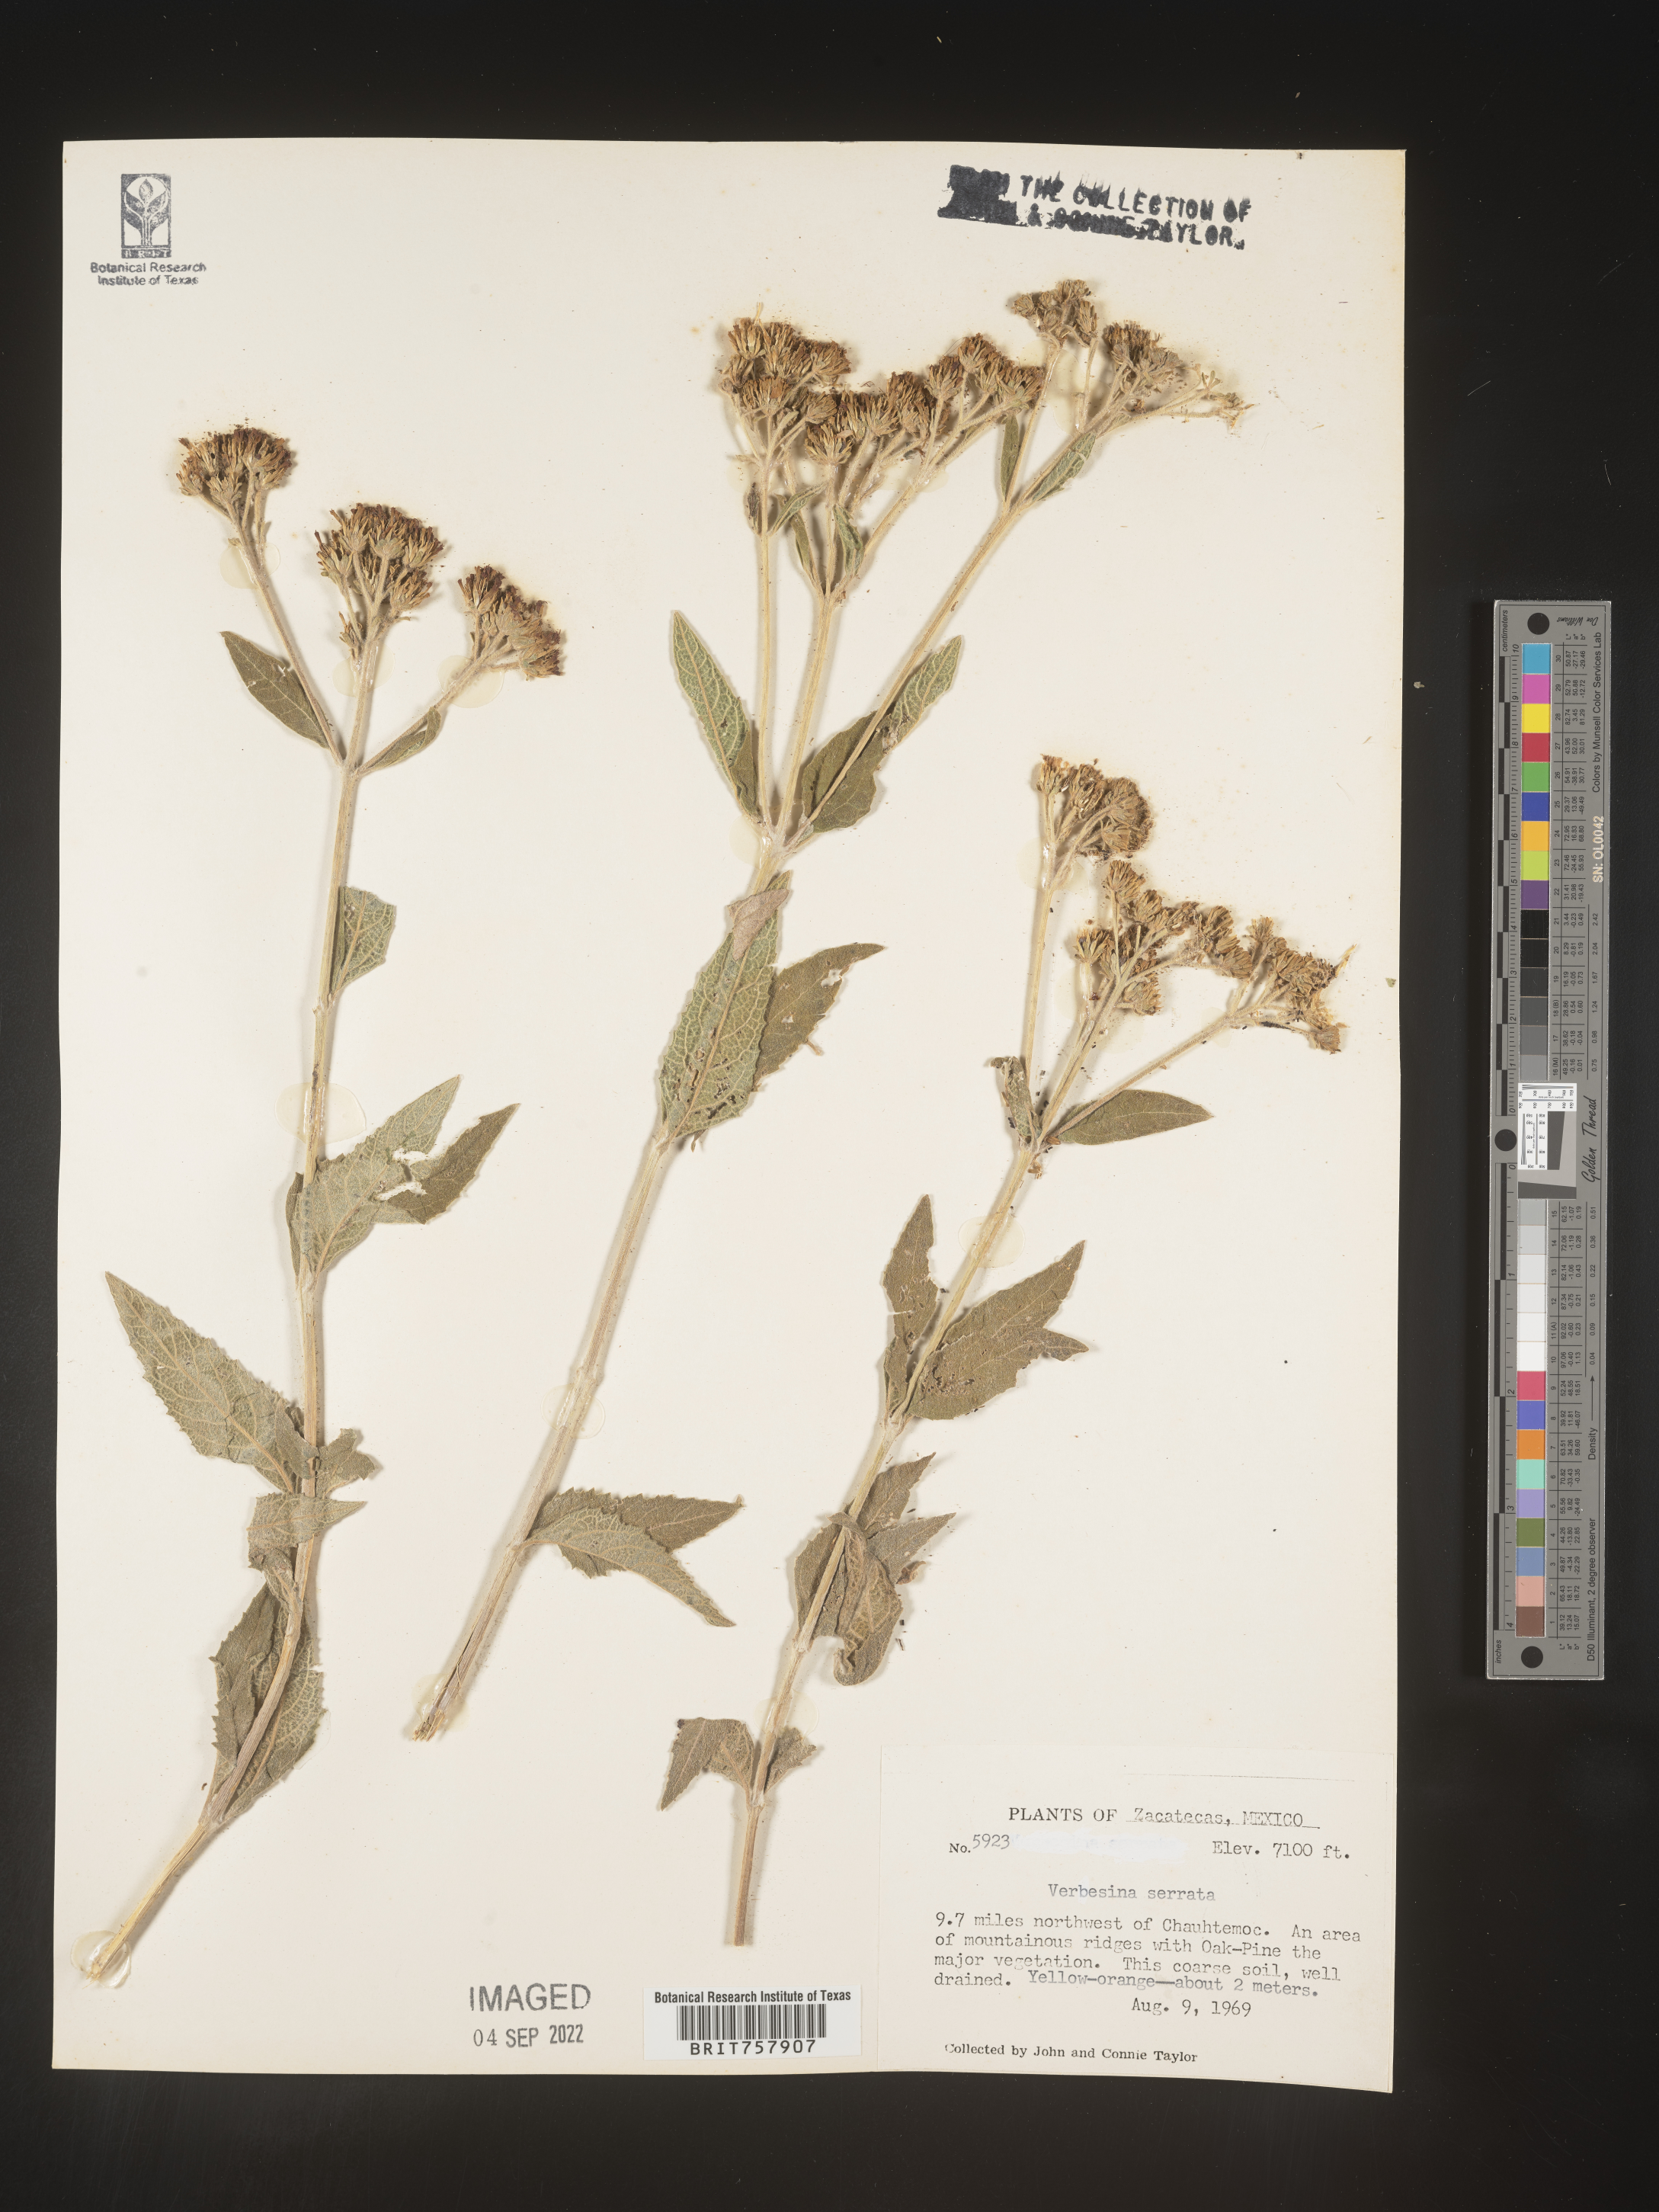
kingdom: Plantae
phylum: Tracheophyta
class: Magnoliopsida
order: Asterales
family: Asteraceae
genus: Verbesina
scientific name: Verbesina
